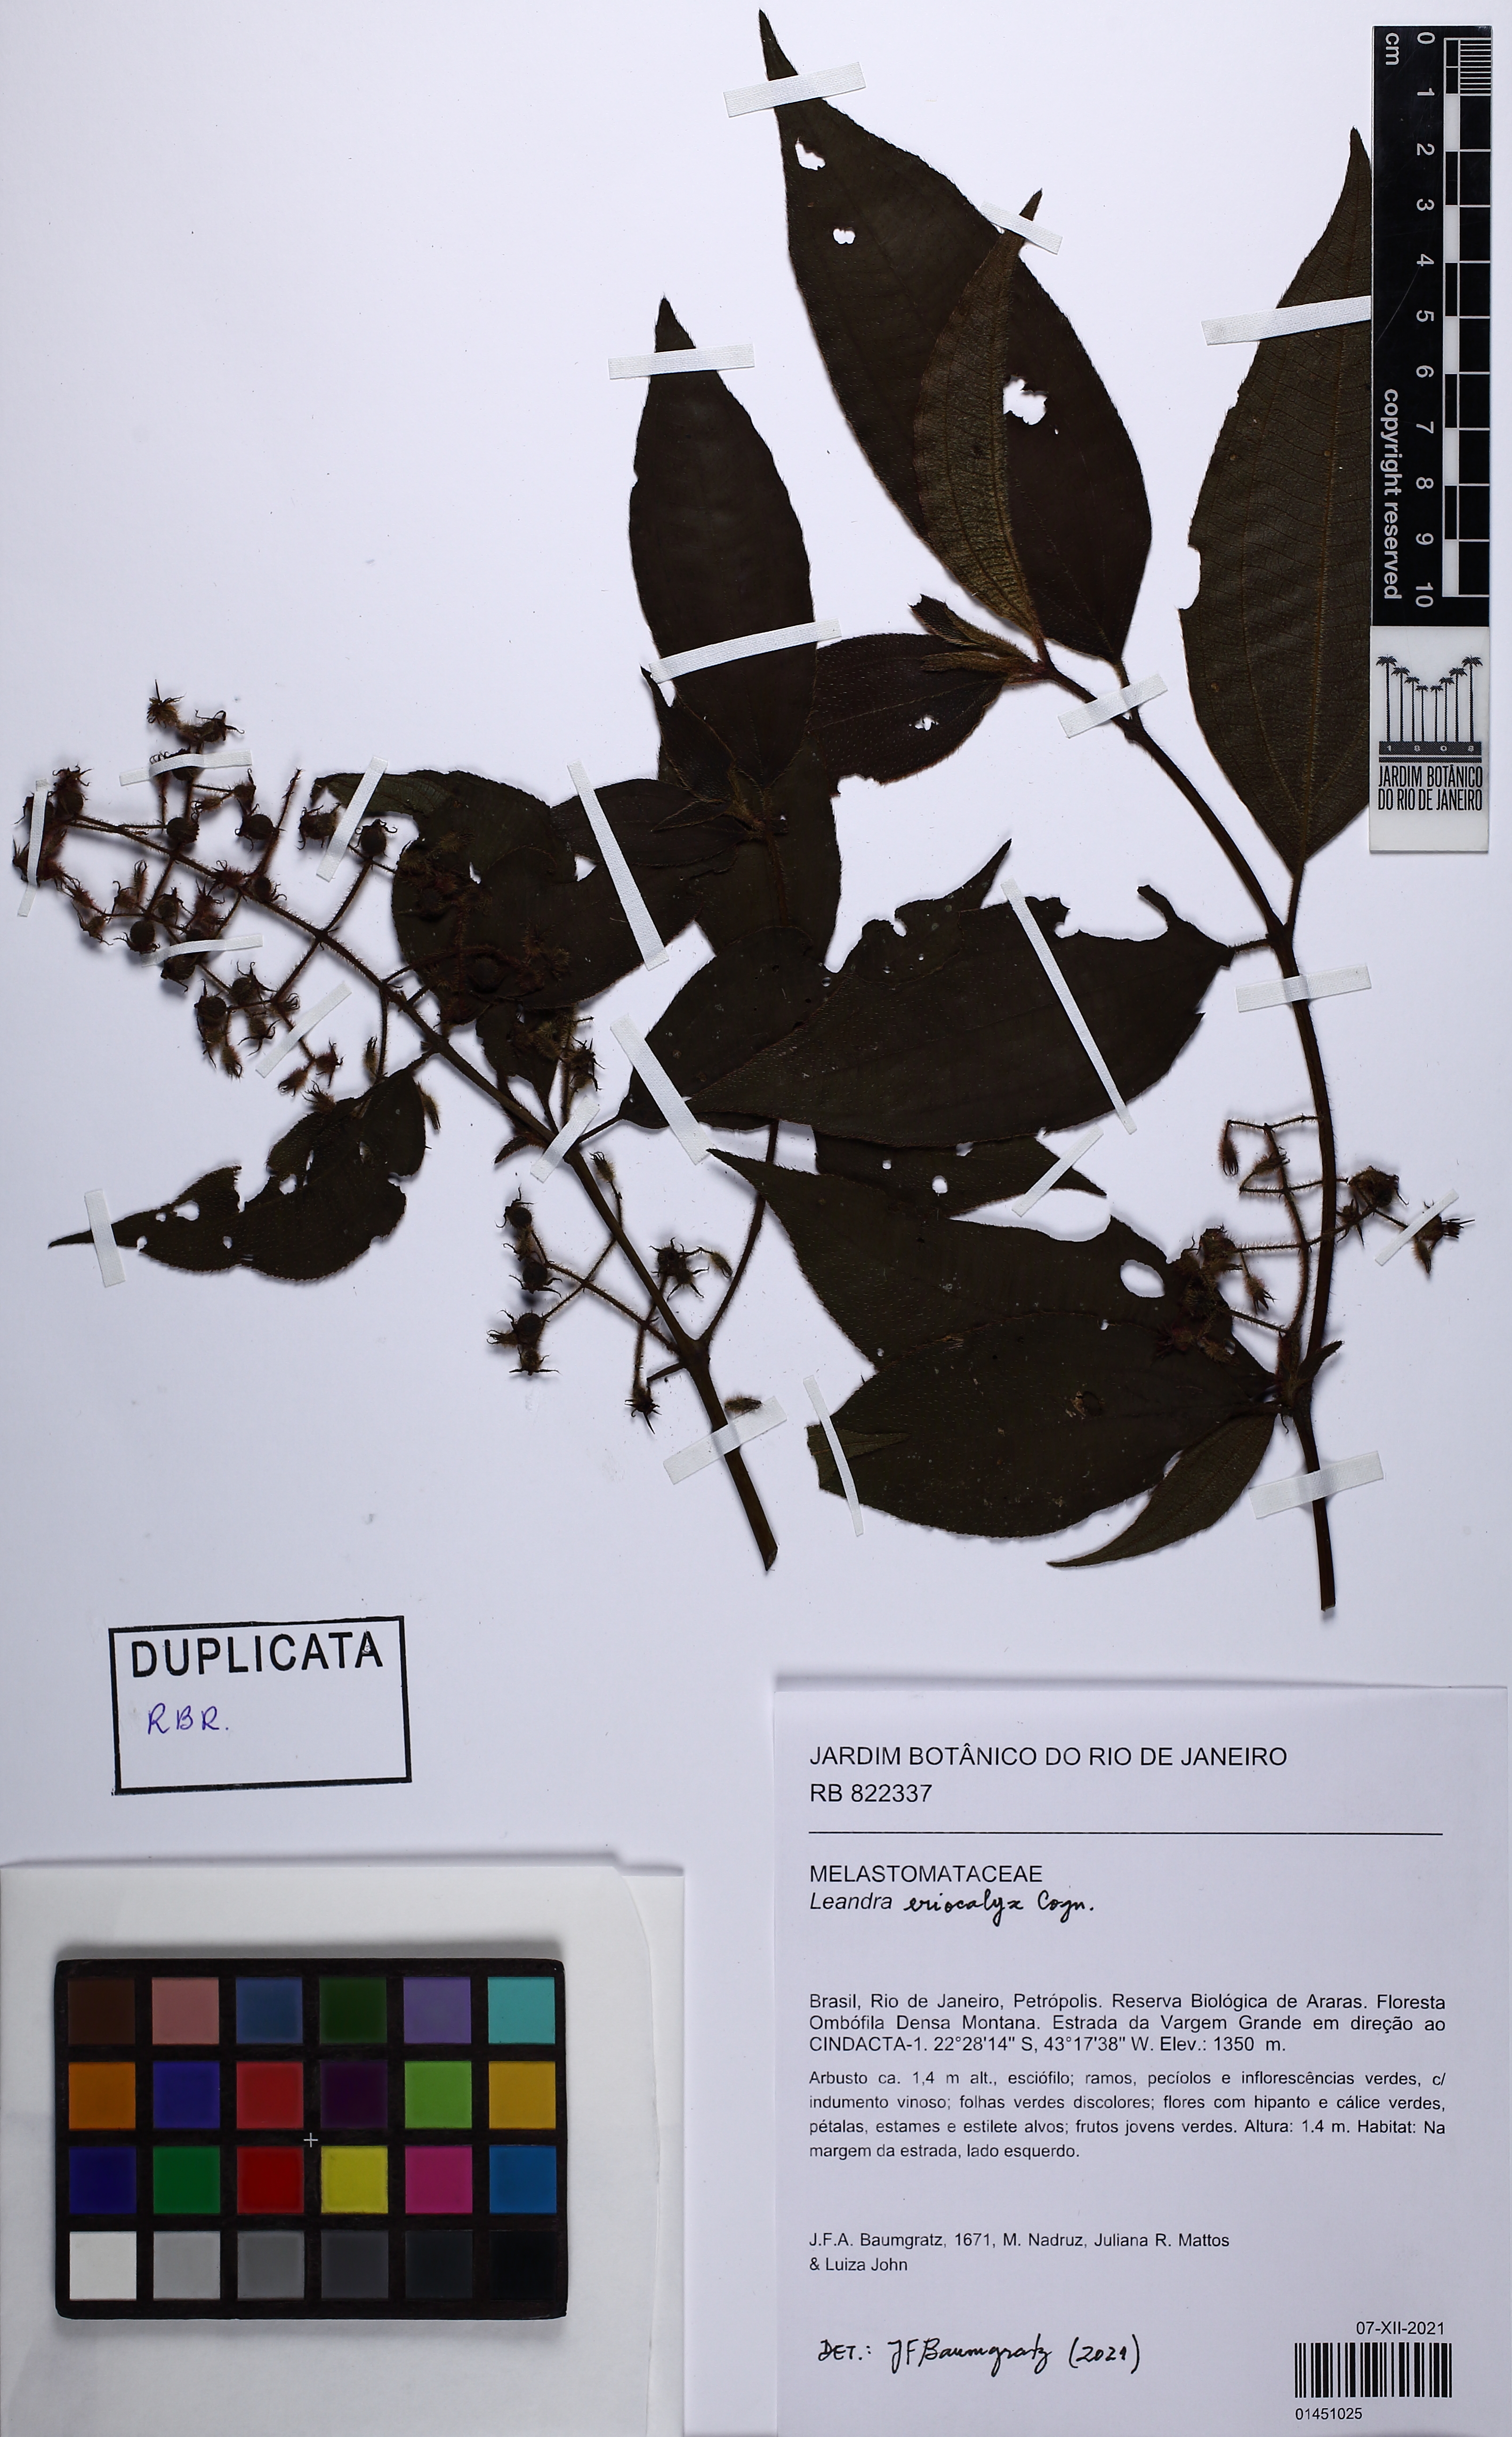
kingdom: Plantae
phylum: Tracheophyta
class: Magnoliopsida
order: Myrtales
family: Melastomataceae
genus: Miconia
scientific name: Miconia leaeriocalyx
